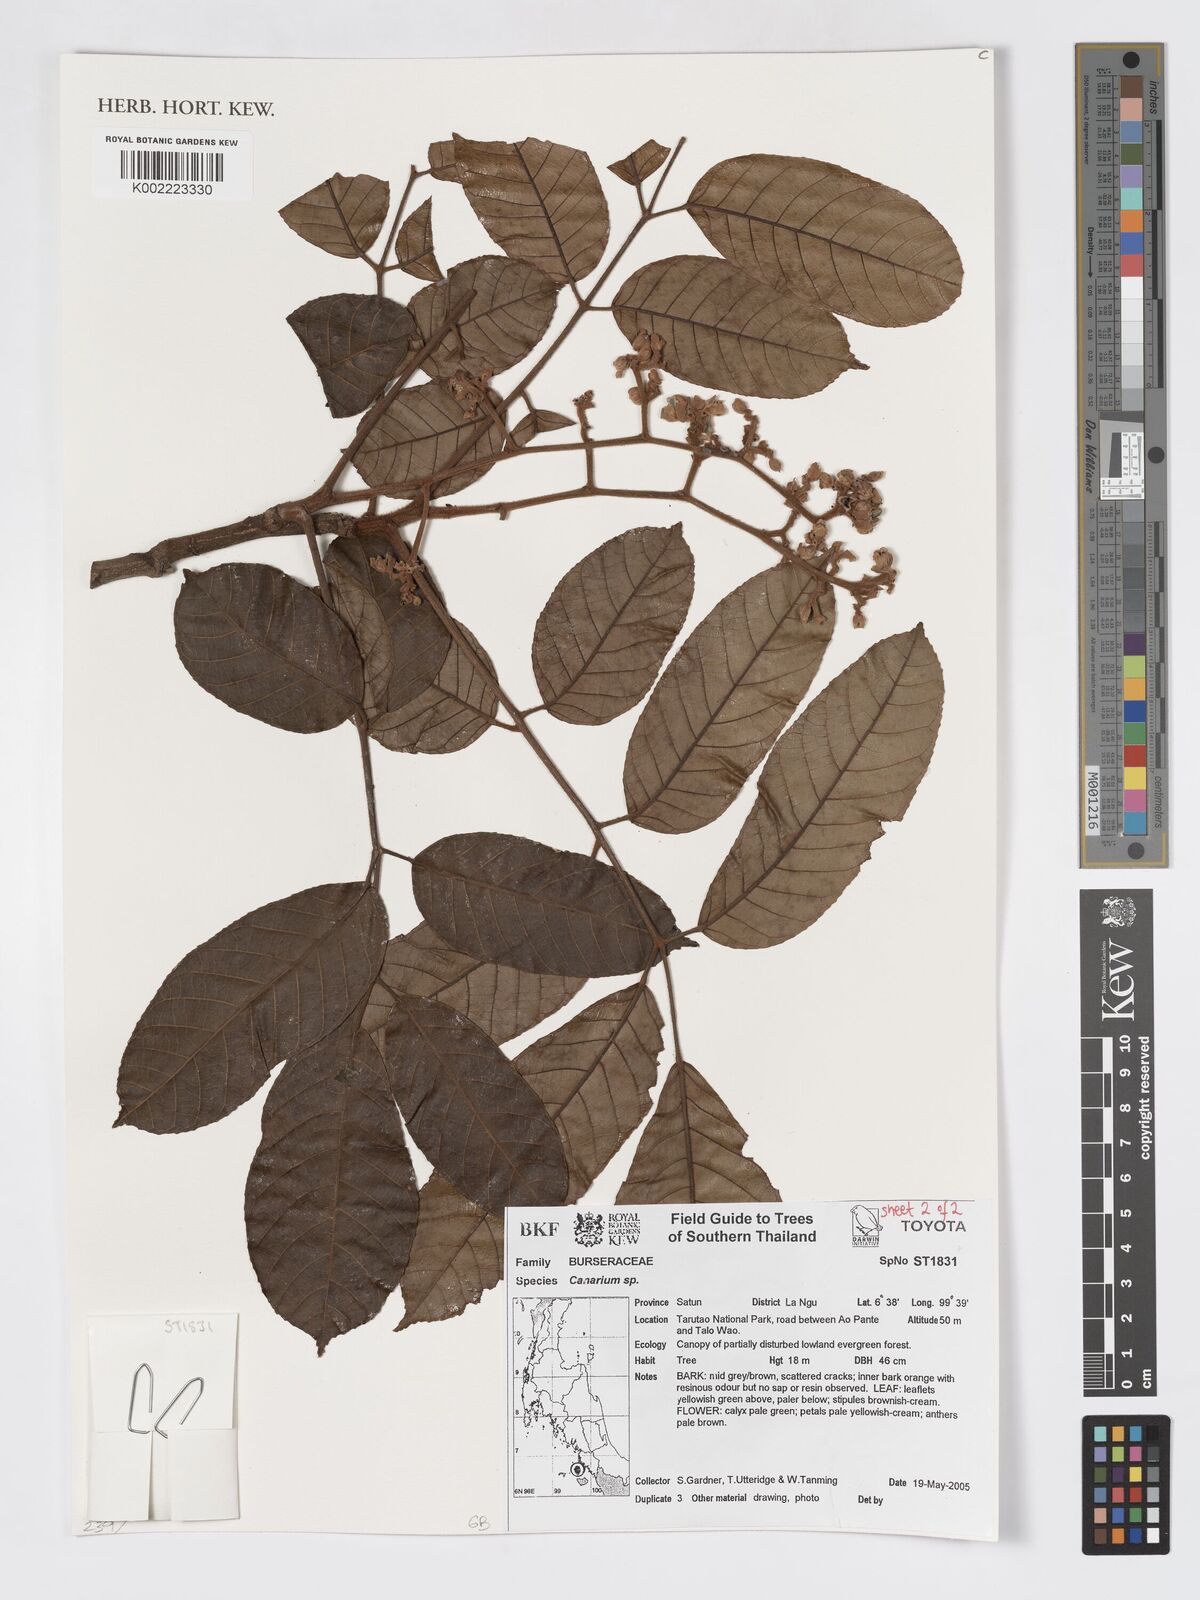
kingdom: Plantae
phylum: Tracheophyta
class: Magnoliopsida
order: Sapindales
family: Burseraceae
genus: Canarium
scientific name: Canarium
